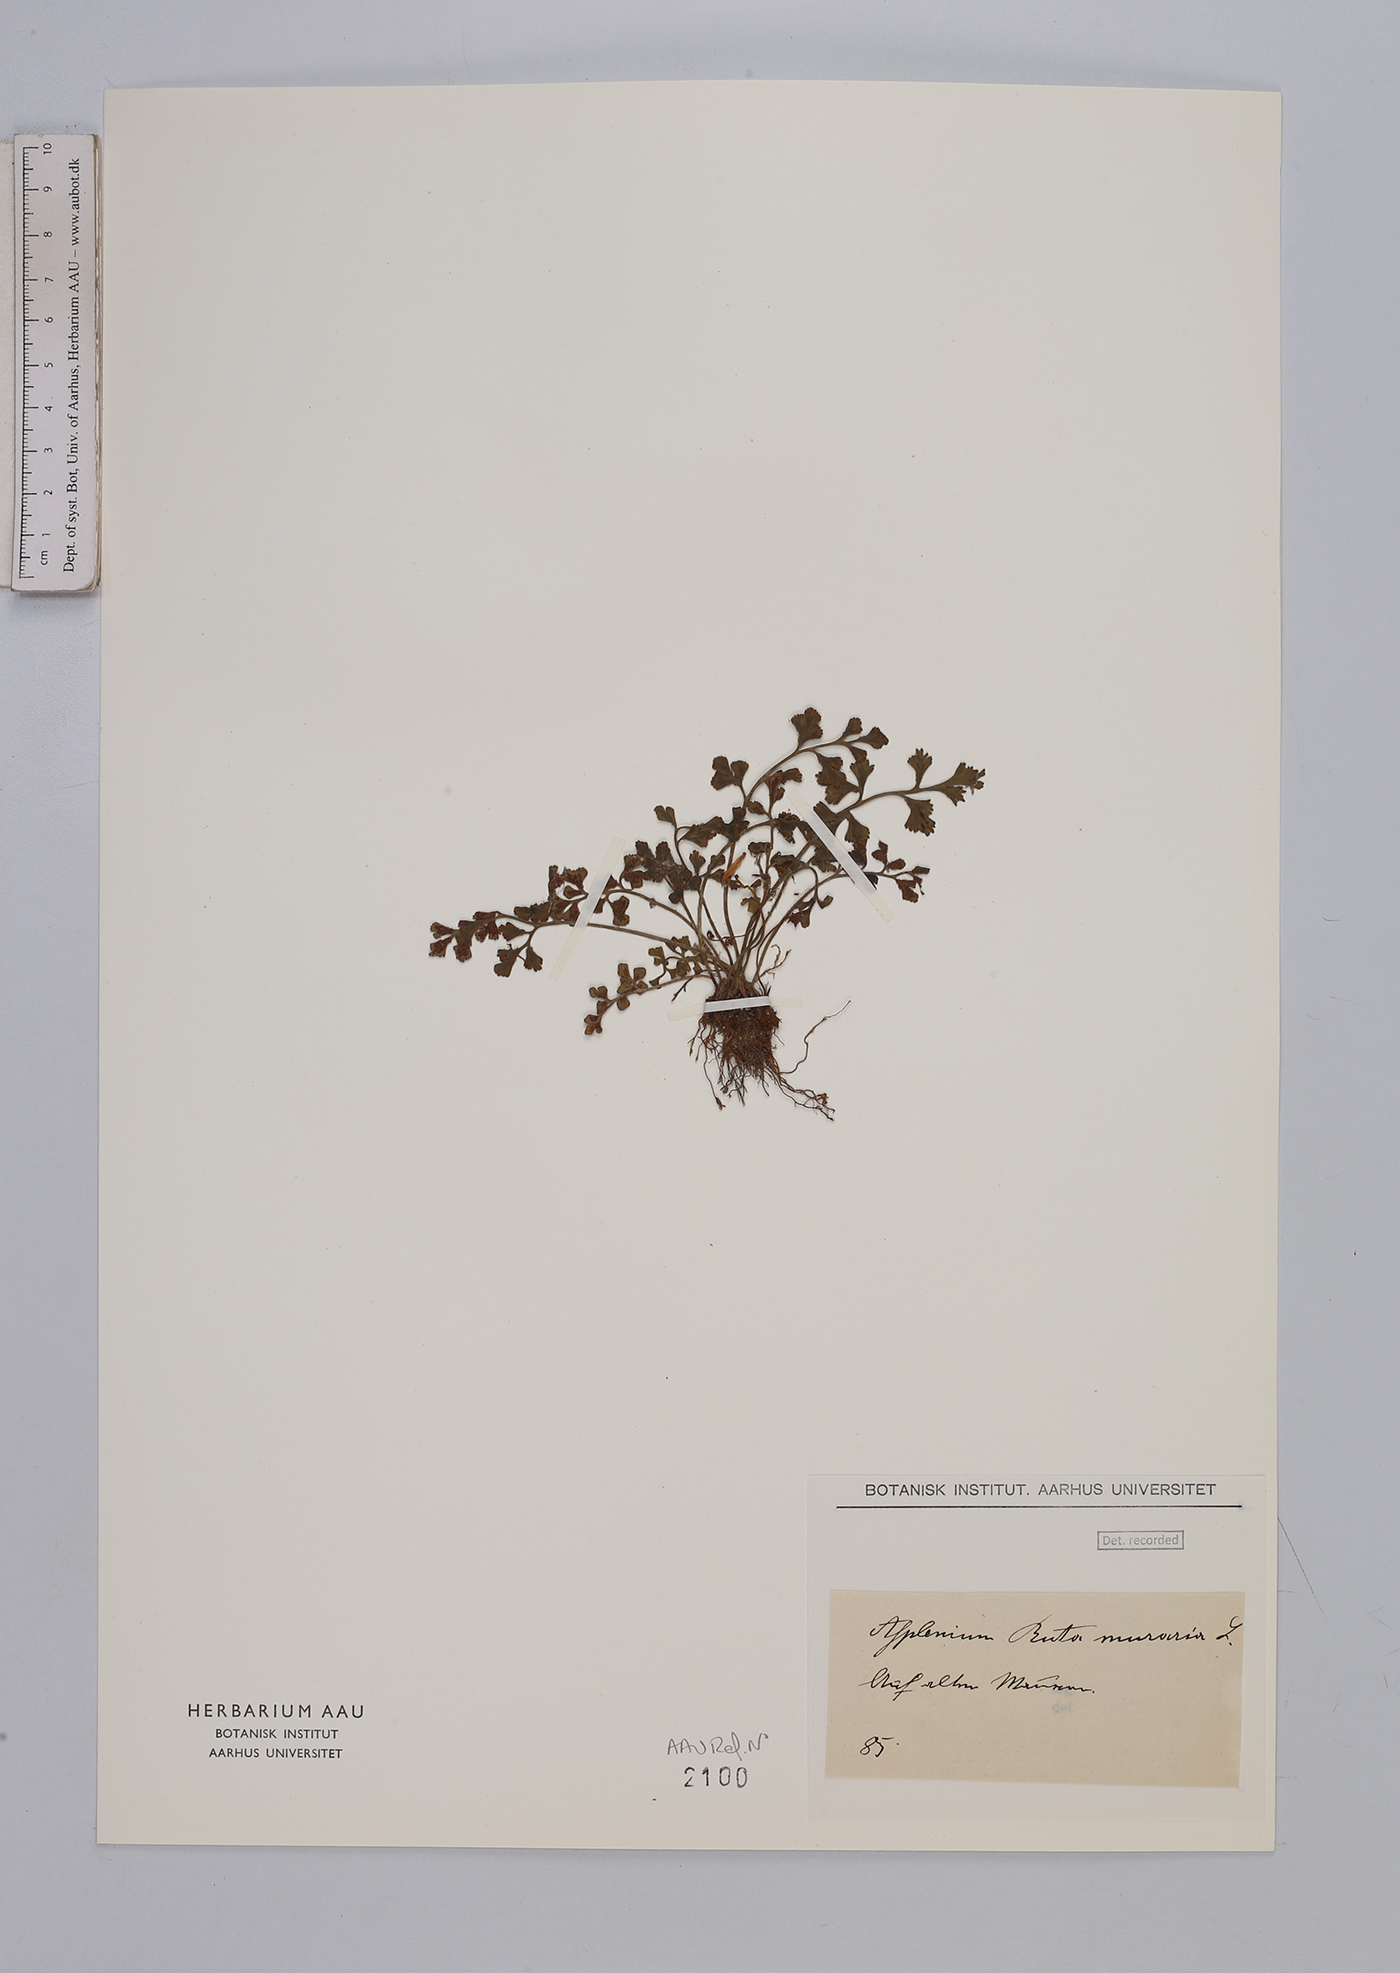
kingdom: Plantae
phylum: Tracheophyta
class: Polypodiopsida
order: Polypodiales
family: Aspleniaceae
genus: Asplenium
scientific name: Asplenium ruta-muraria
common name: Wall-rue
